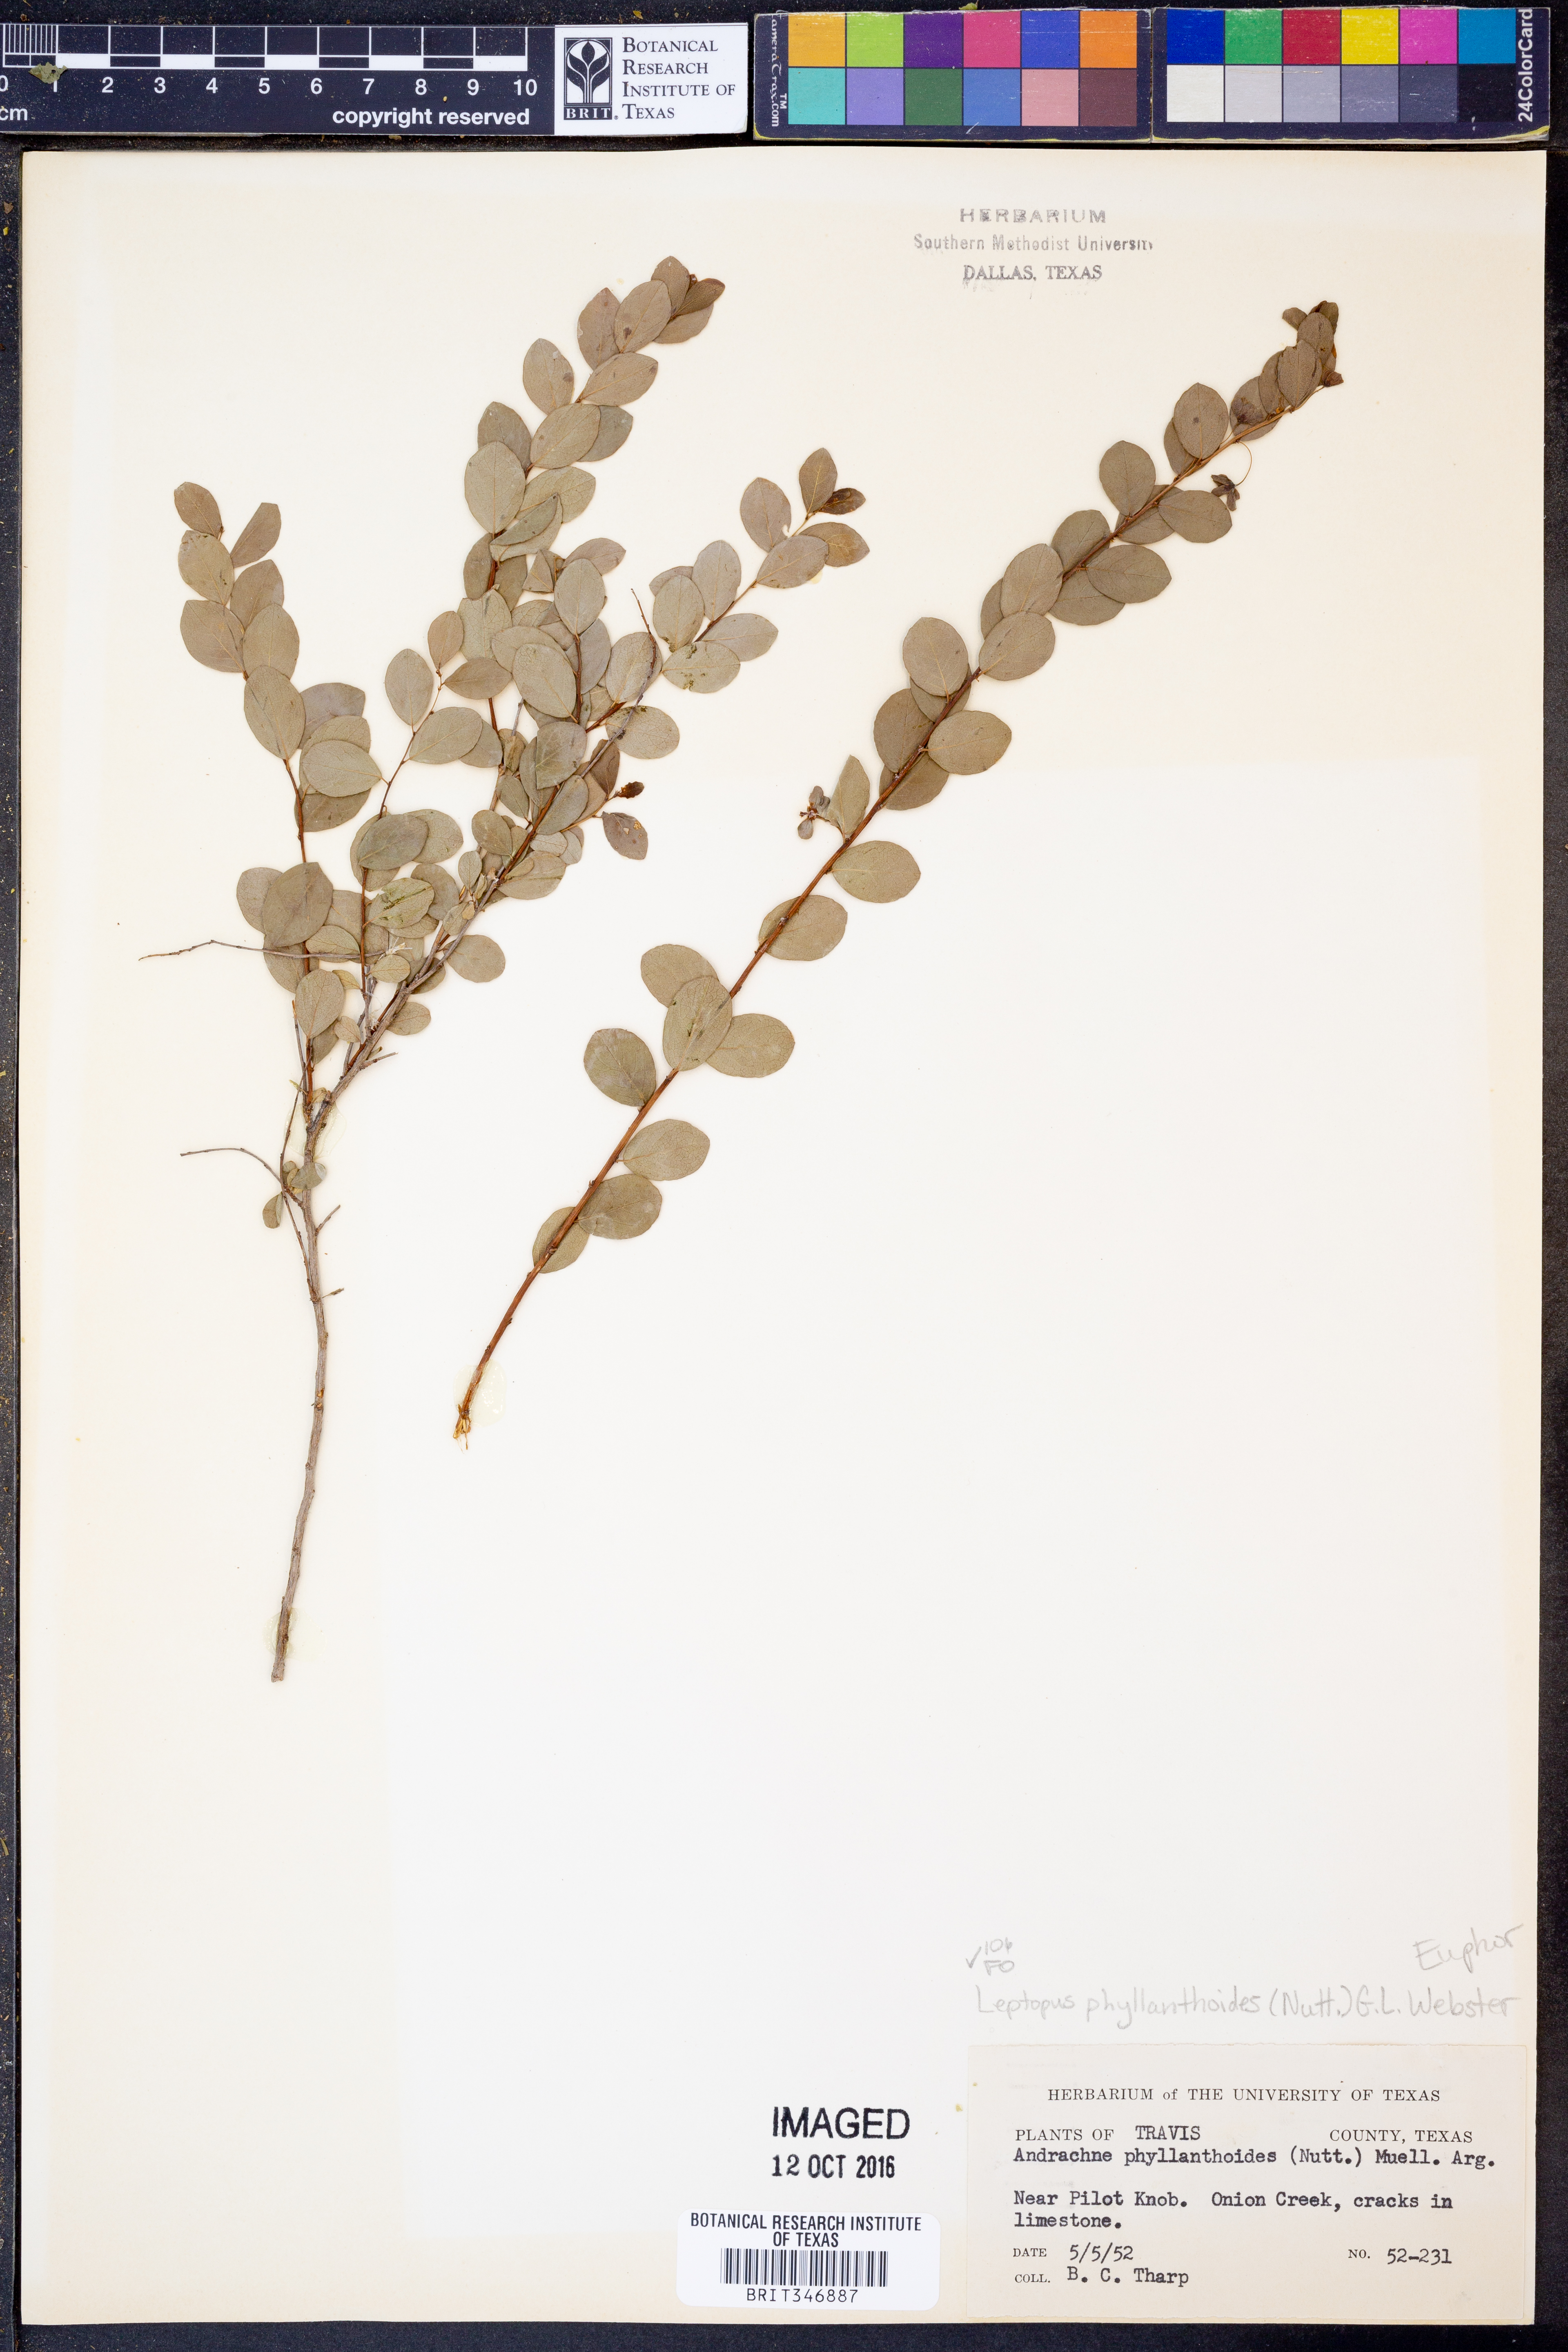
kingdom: Plantae
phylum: Tracheophyta
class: Magnoliopsida
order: Malpighiales
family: Phyllanthaceae
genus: Phyllanthopsis
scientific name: Phyllanthopsis phyllanthoides
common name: Missouri maidenbush
